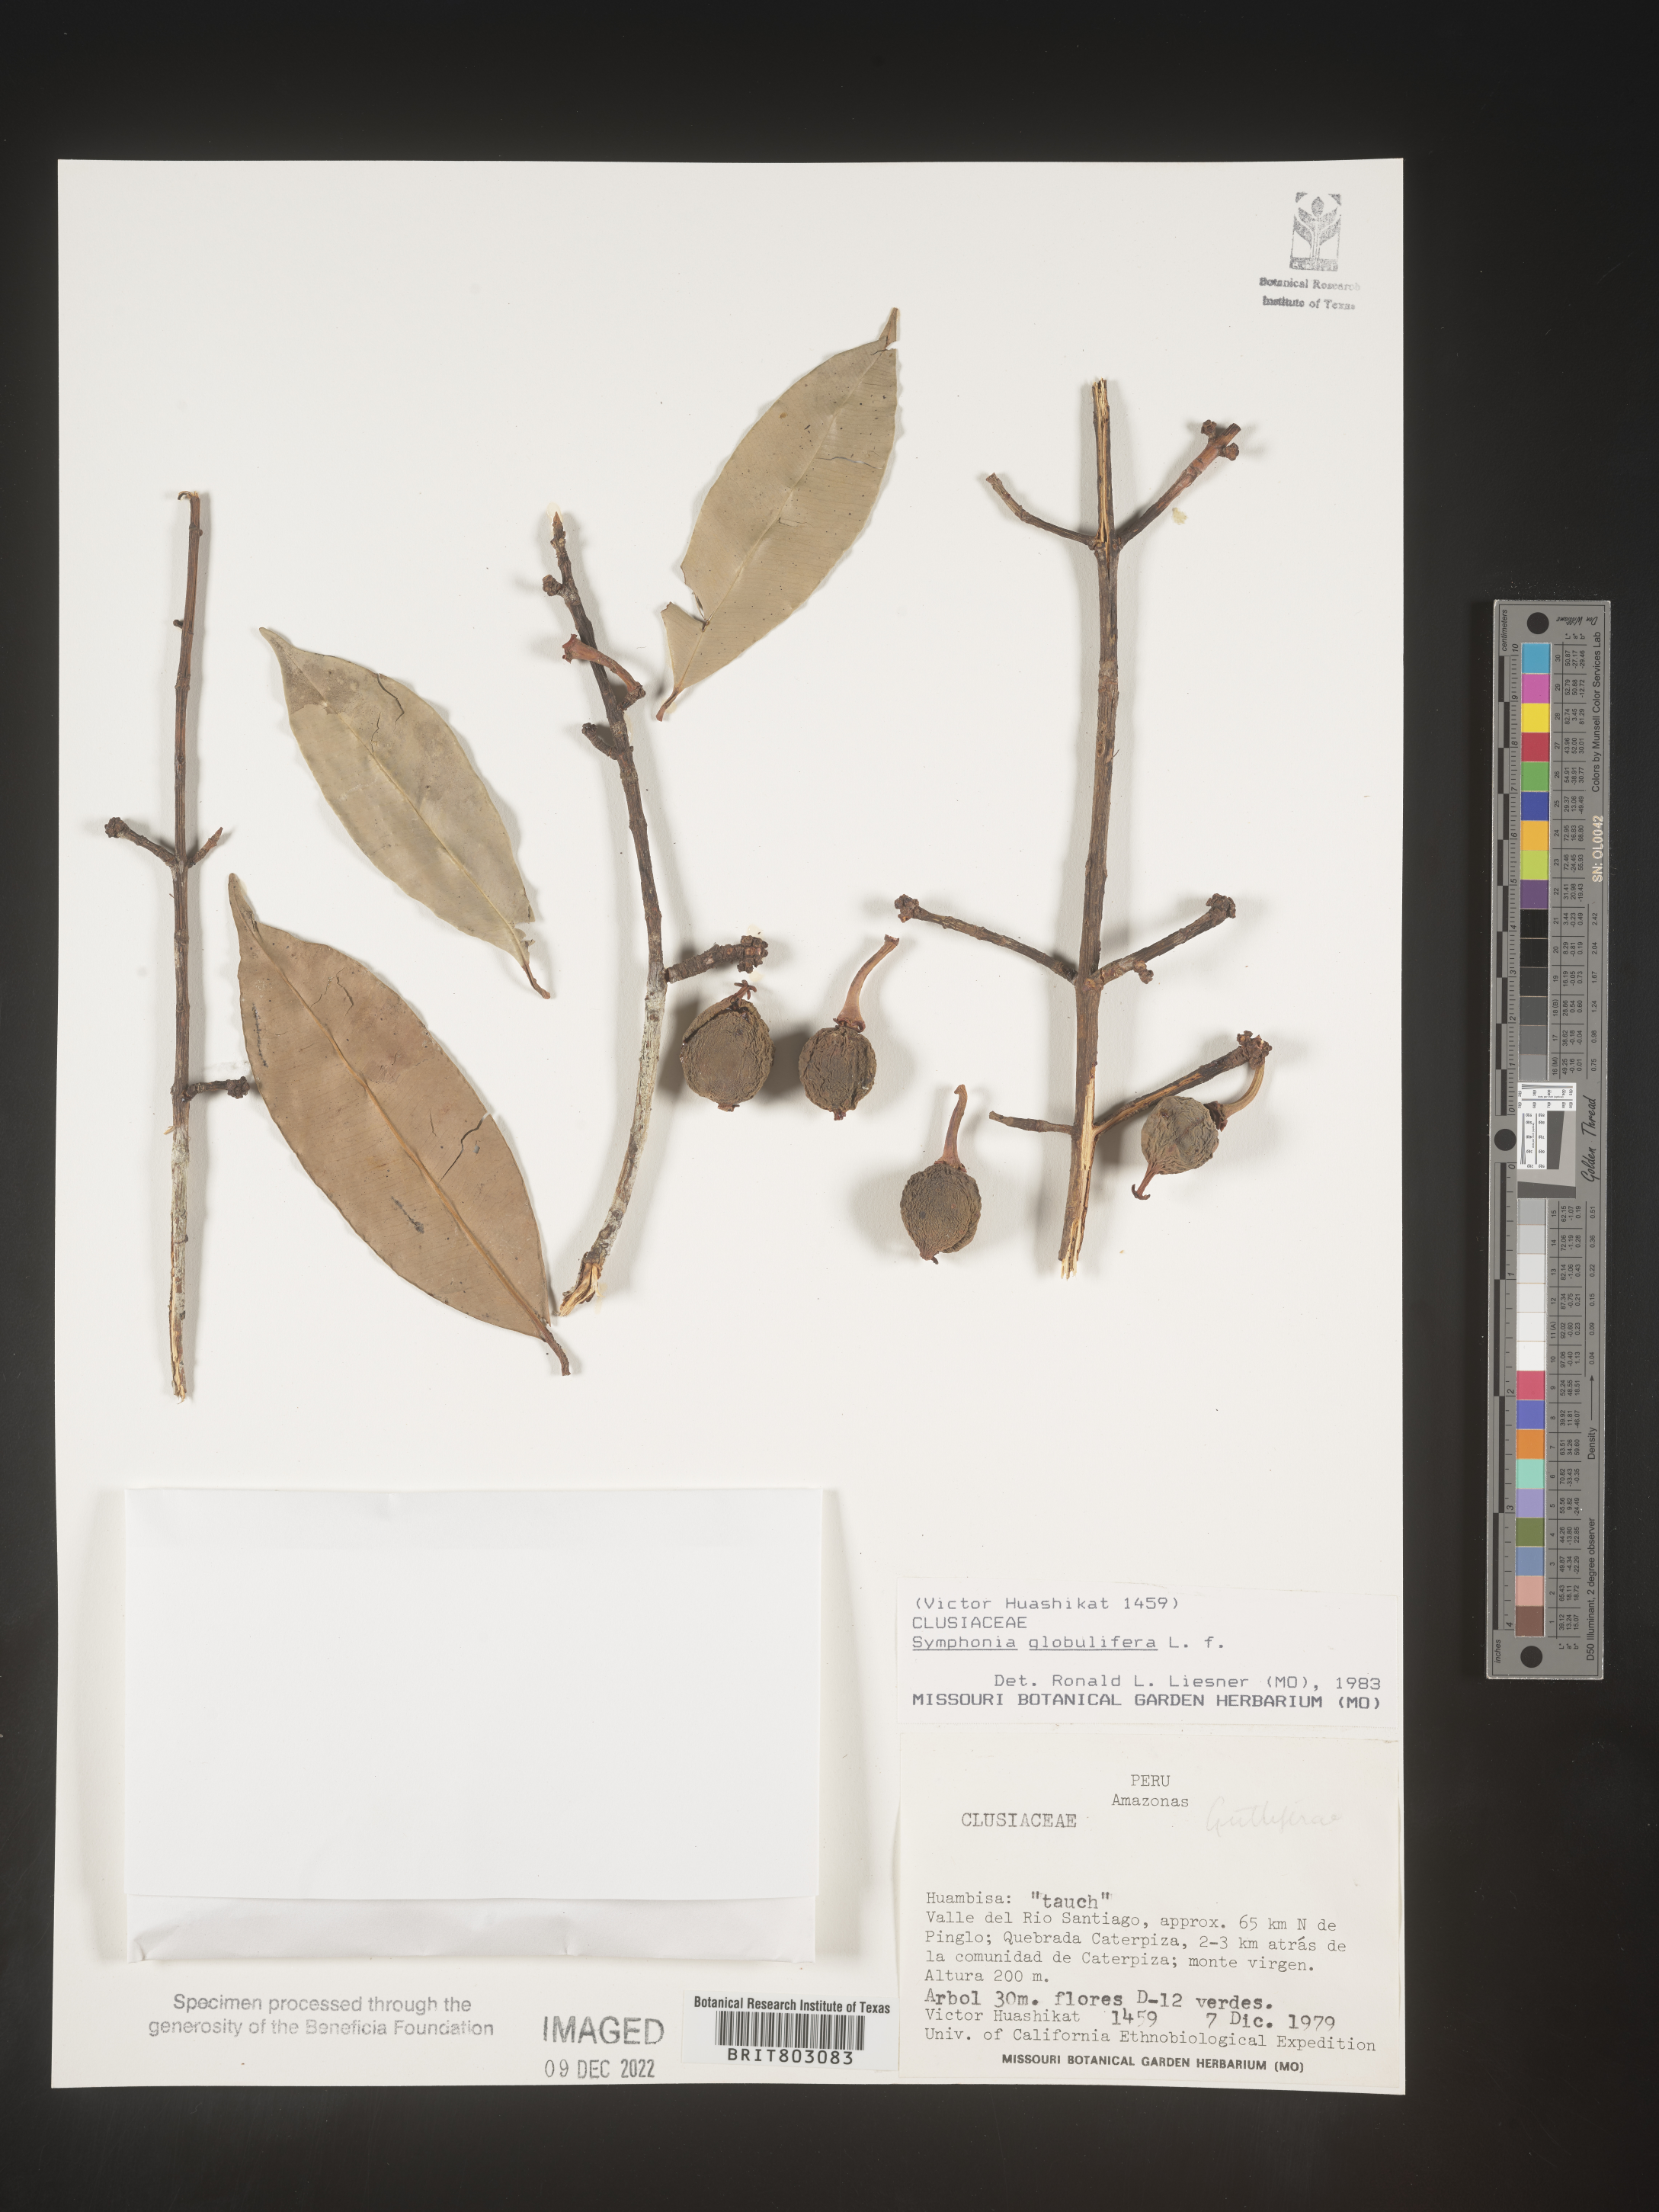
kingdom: Plantae
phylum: Tracheophyta
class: Magnoliopsida
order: Malpighiales
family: Clusiaceae
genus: Symphonia
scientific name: Symphonia
